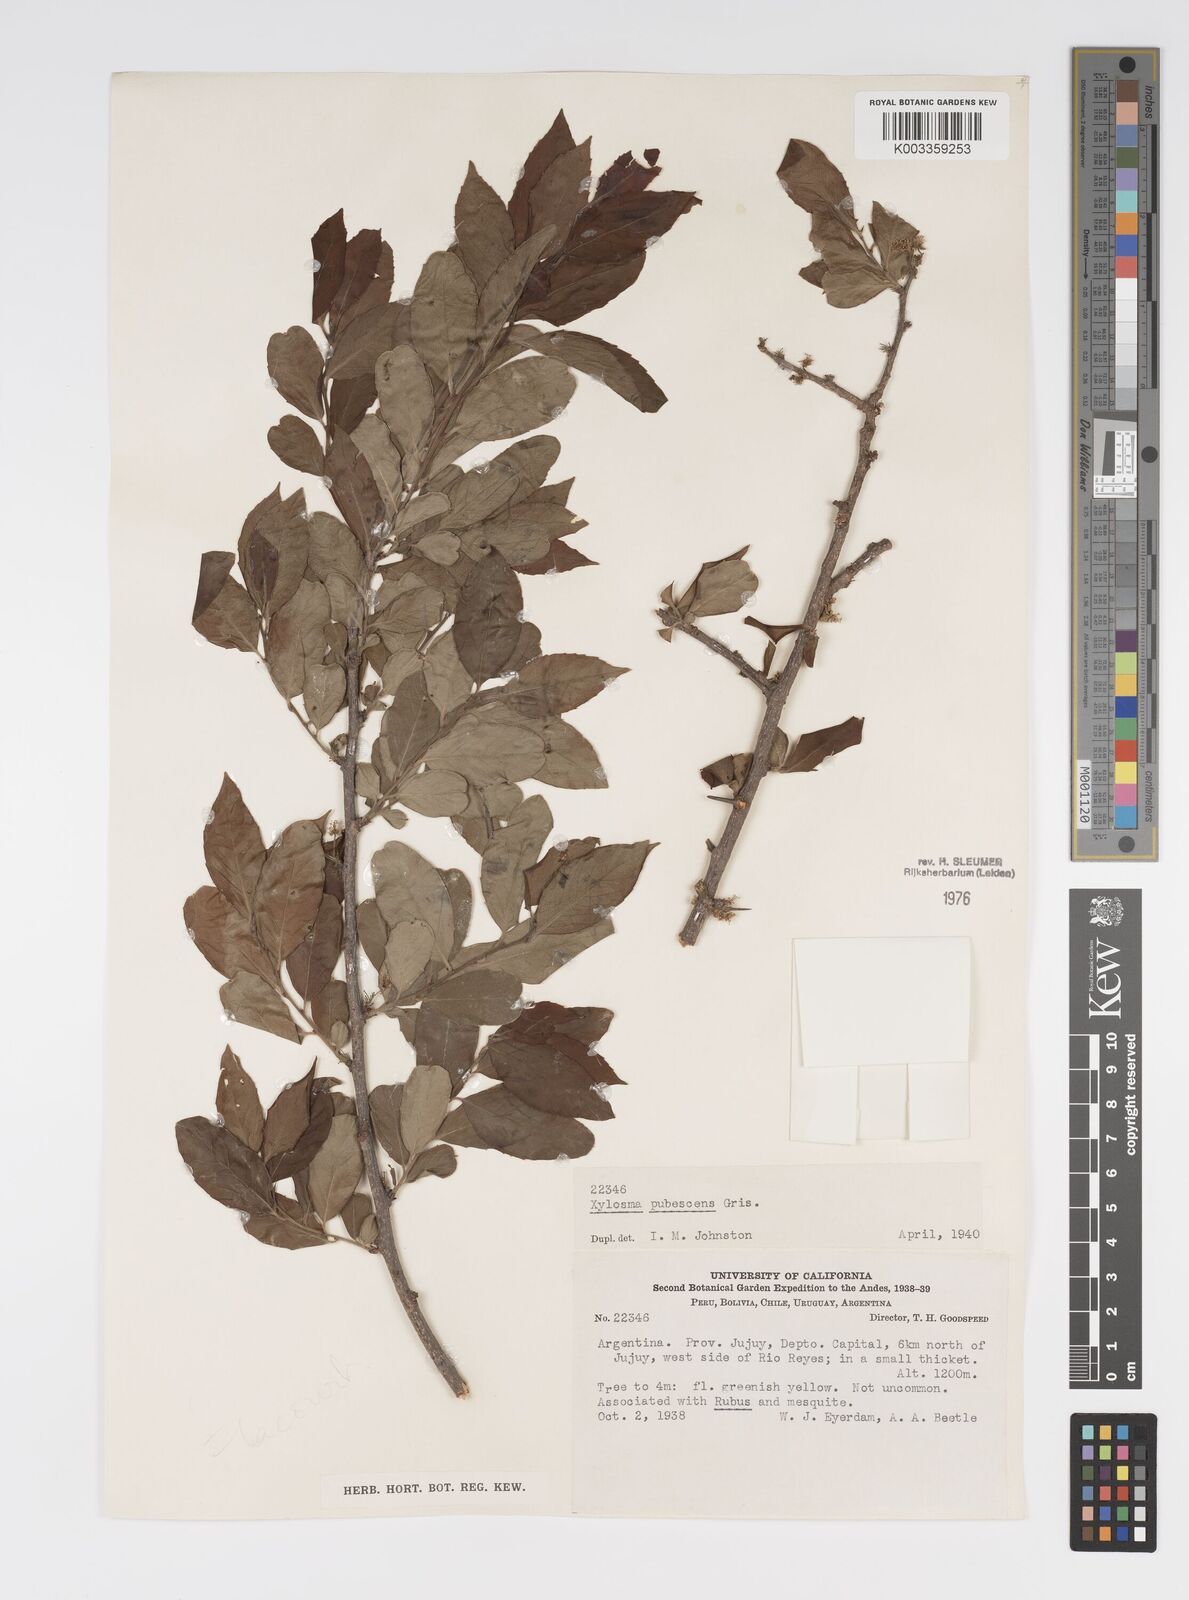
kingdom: Plantae
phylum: Tracheophyta
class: Magnoliopsida
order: Malpighiales
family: Salicaceae
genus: Xylosma
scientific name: Xylosma pubescens
